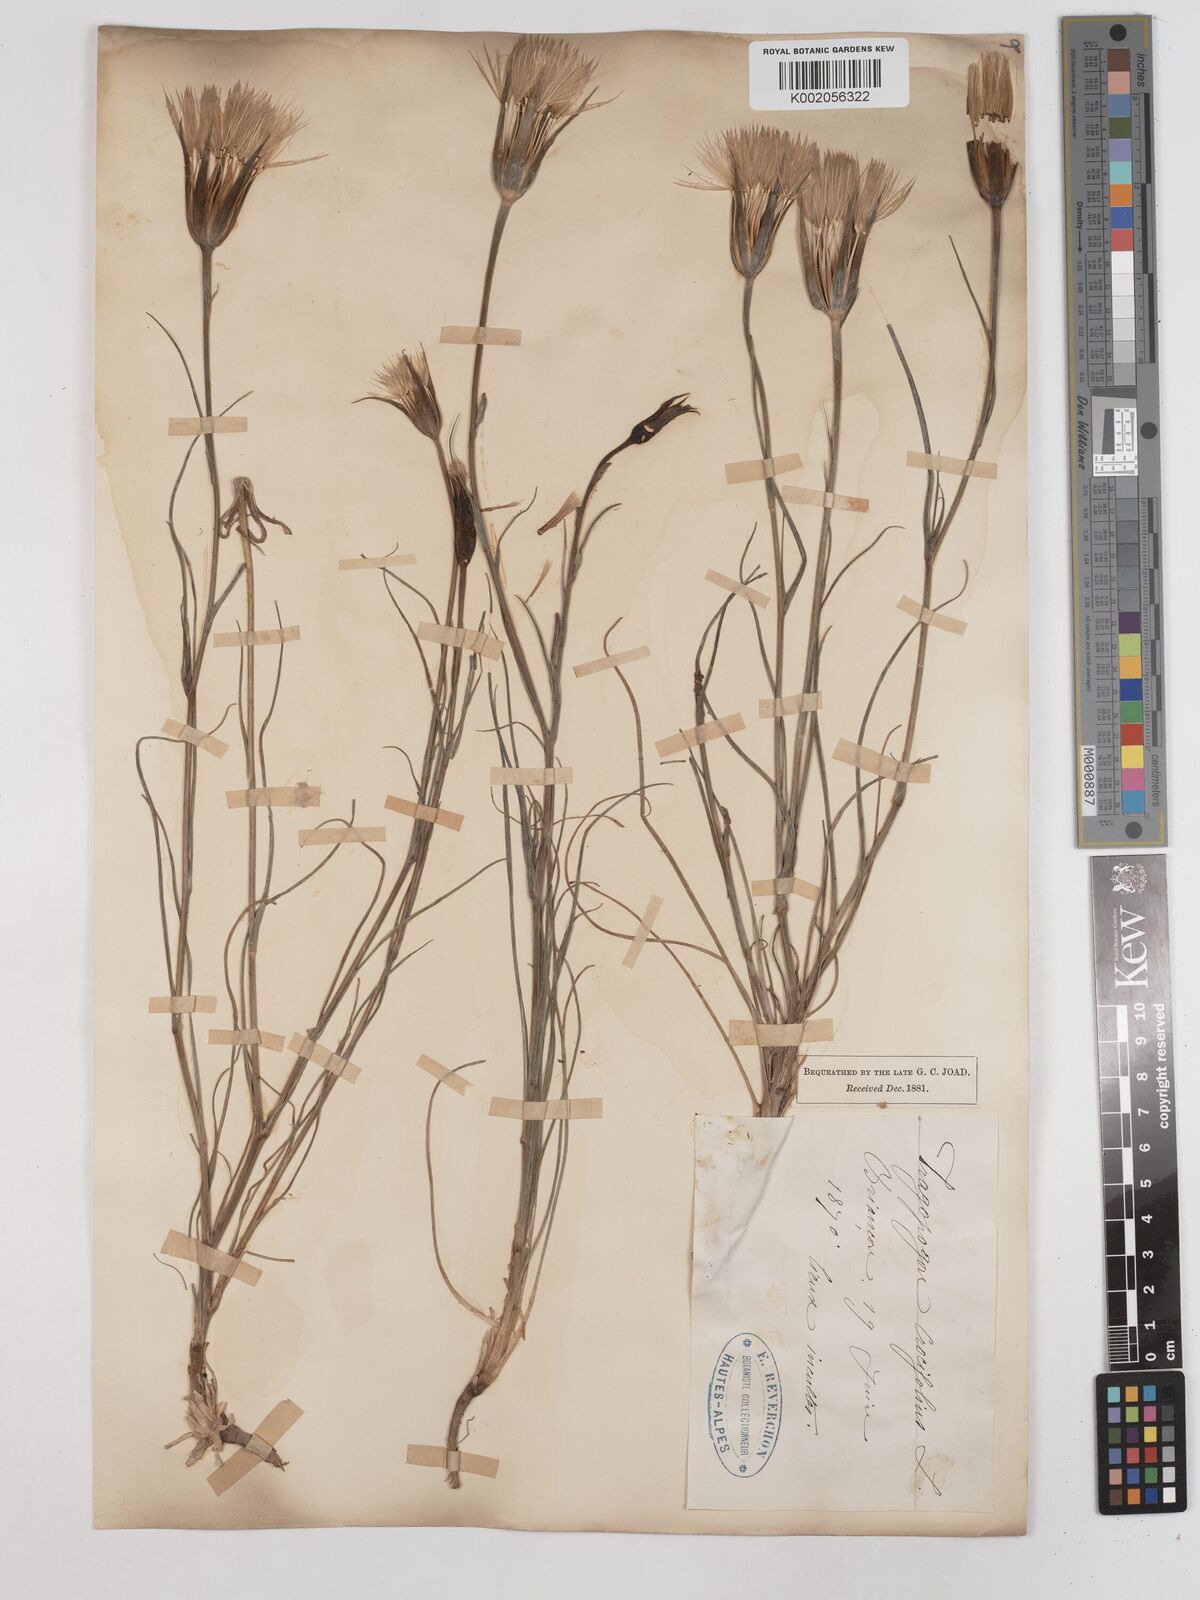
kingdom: Plantae
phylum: Tracheophyta
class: Magnoliopsida
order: Asterales
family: Asteraceae
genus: Tragopogon
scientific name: Tragopogon crocifolius
